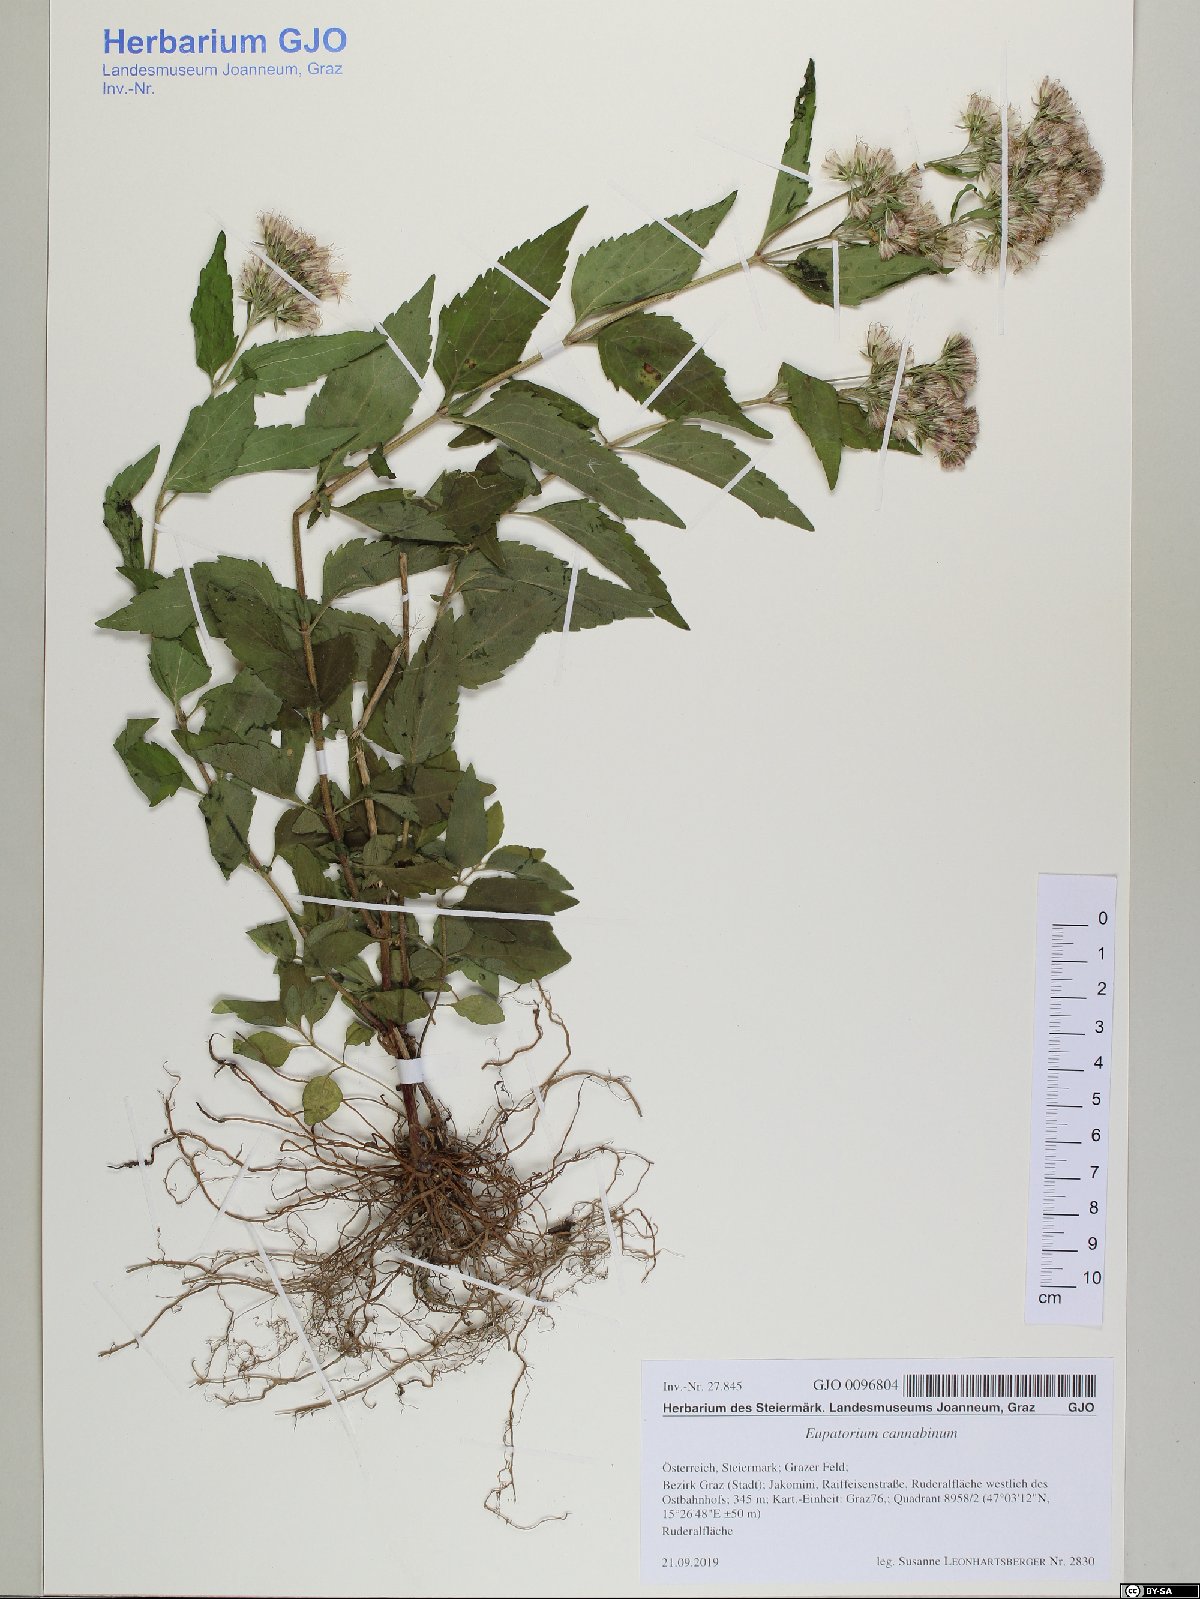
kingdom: Plantae
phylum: Tracheophyta
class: Magnoliopsida
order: Asterales
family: Asteraceae
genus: Eupatorium
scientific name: Eupatorium cannabinum
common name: Hemp-agrimony
